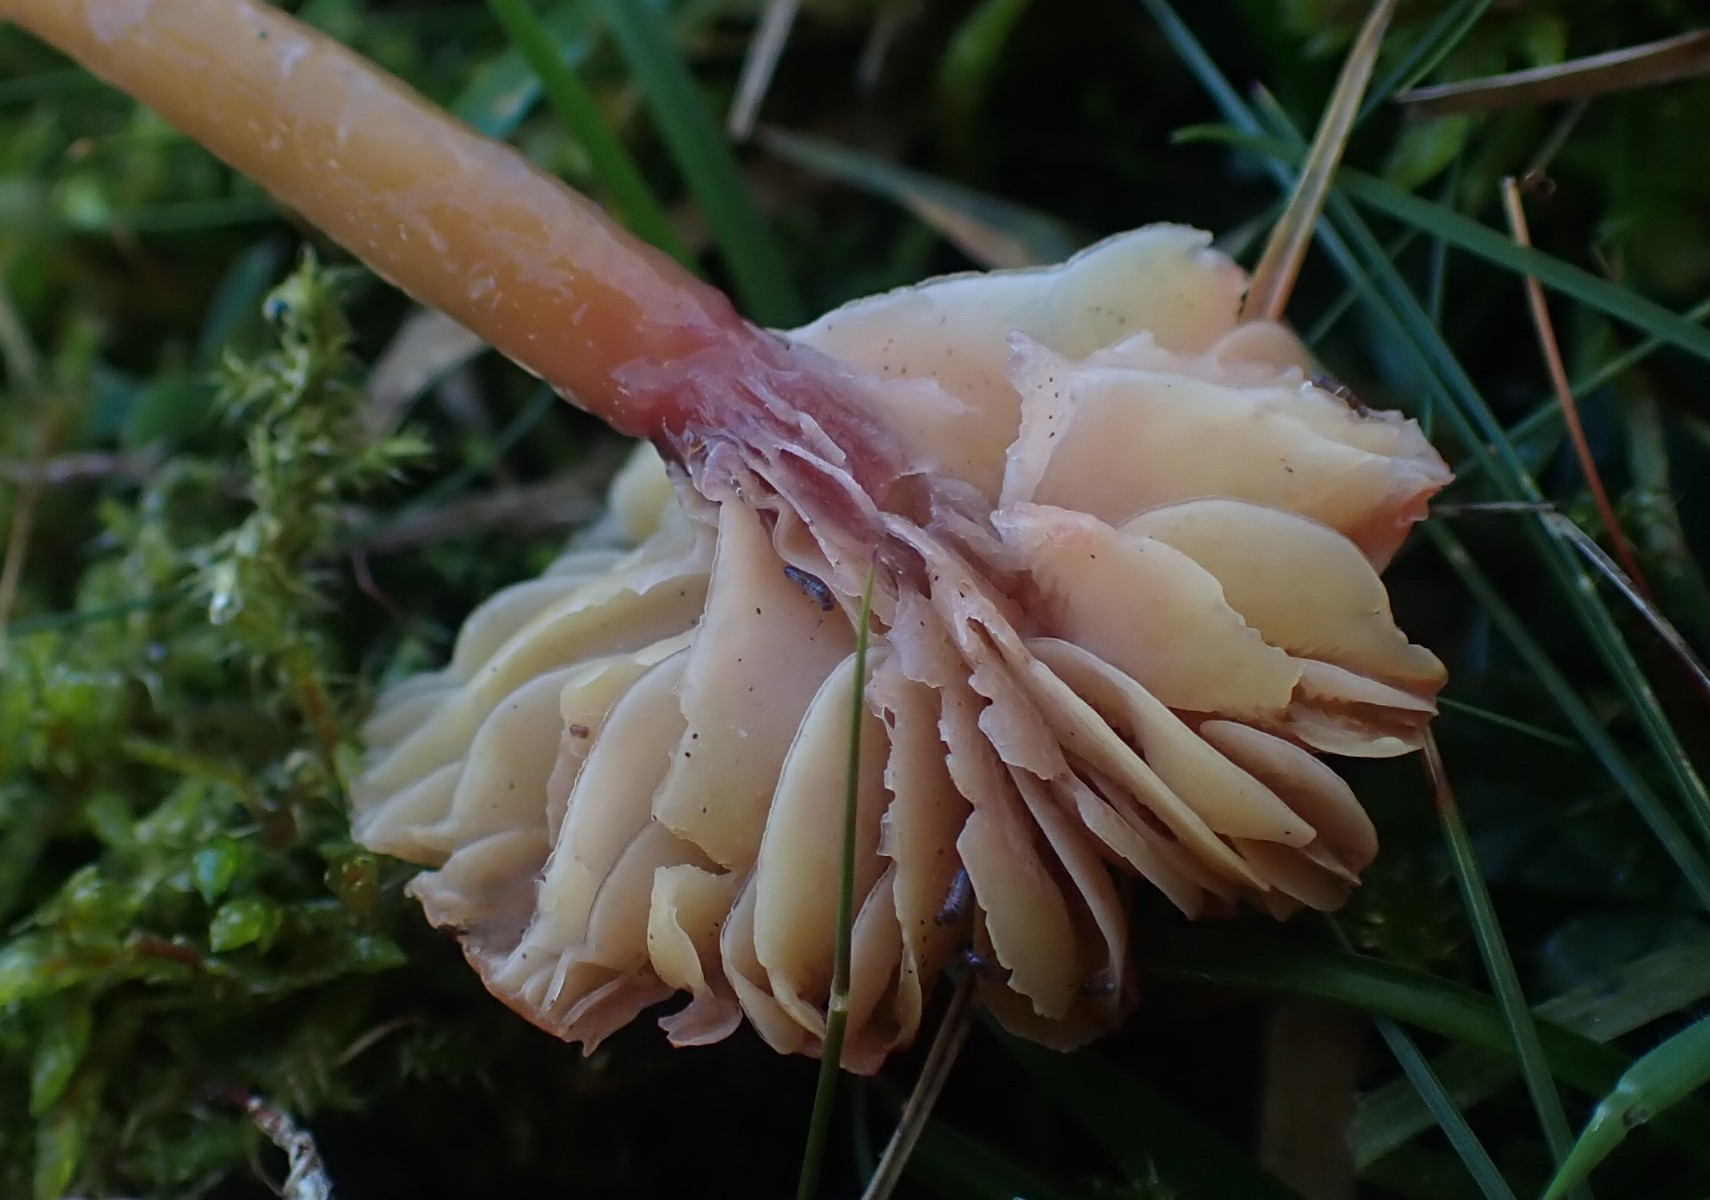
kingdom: Fungi
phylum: Basidiomycota
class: Agaricomycetes
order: Agaricales
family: Hygrophoraceae
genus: Gliophorus
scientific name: Gliophorus laetus
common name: brusk-vokshat
